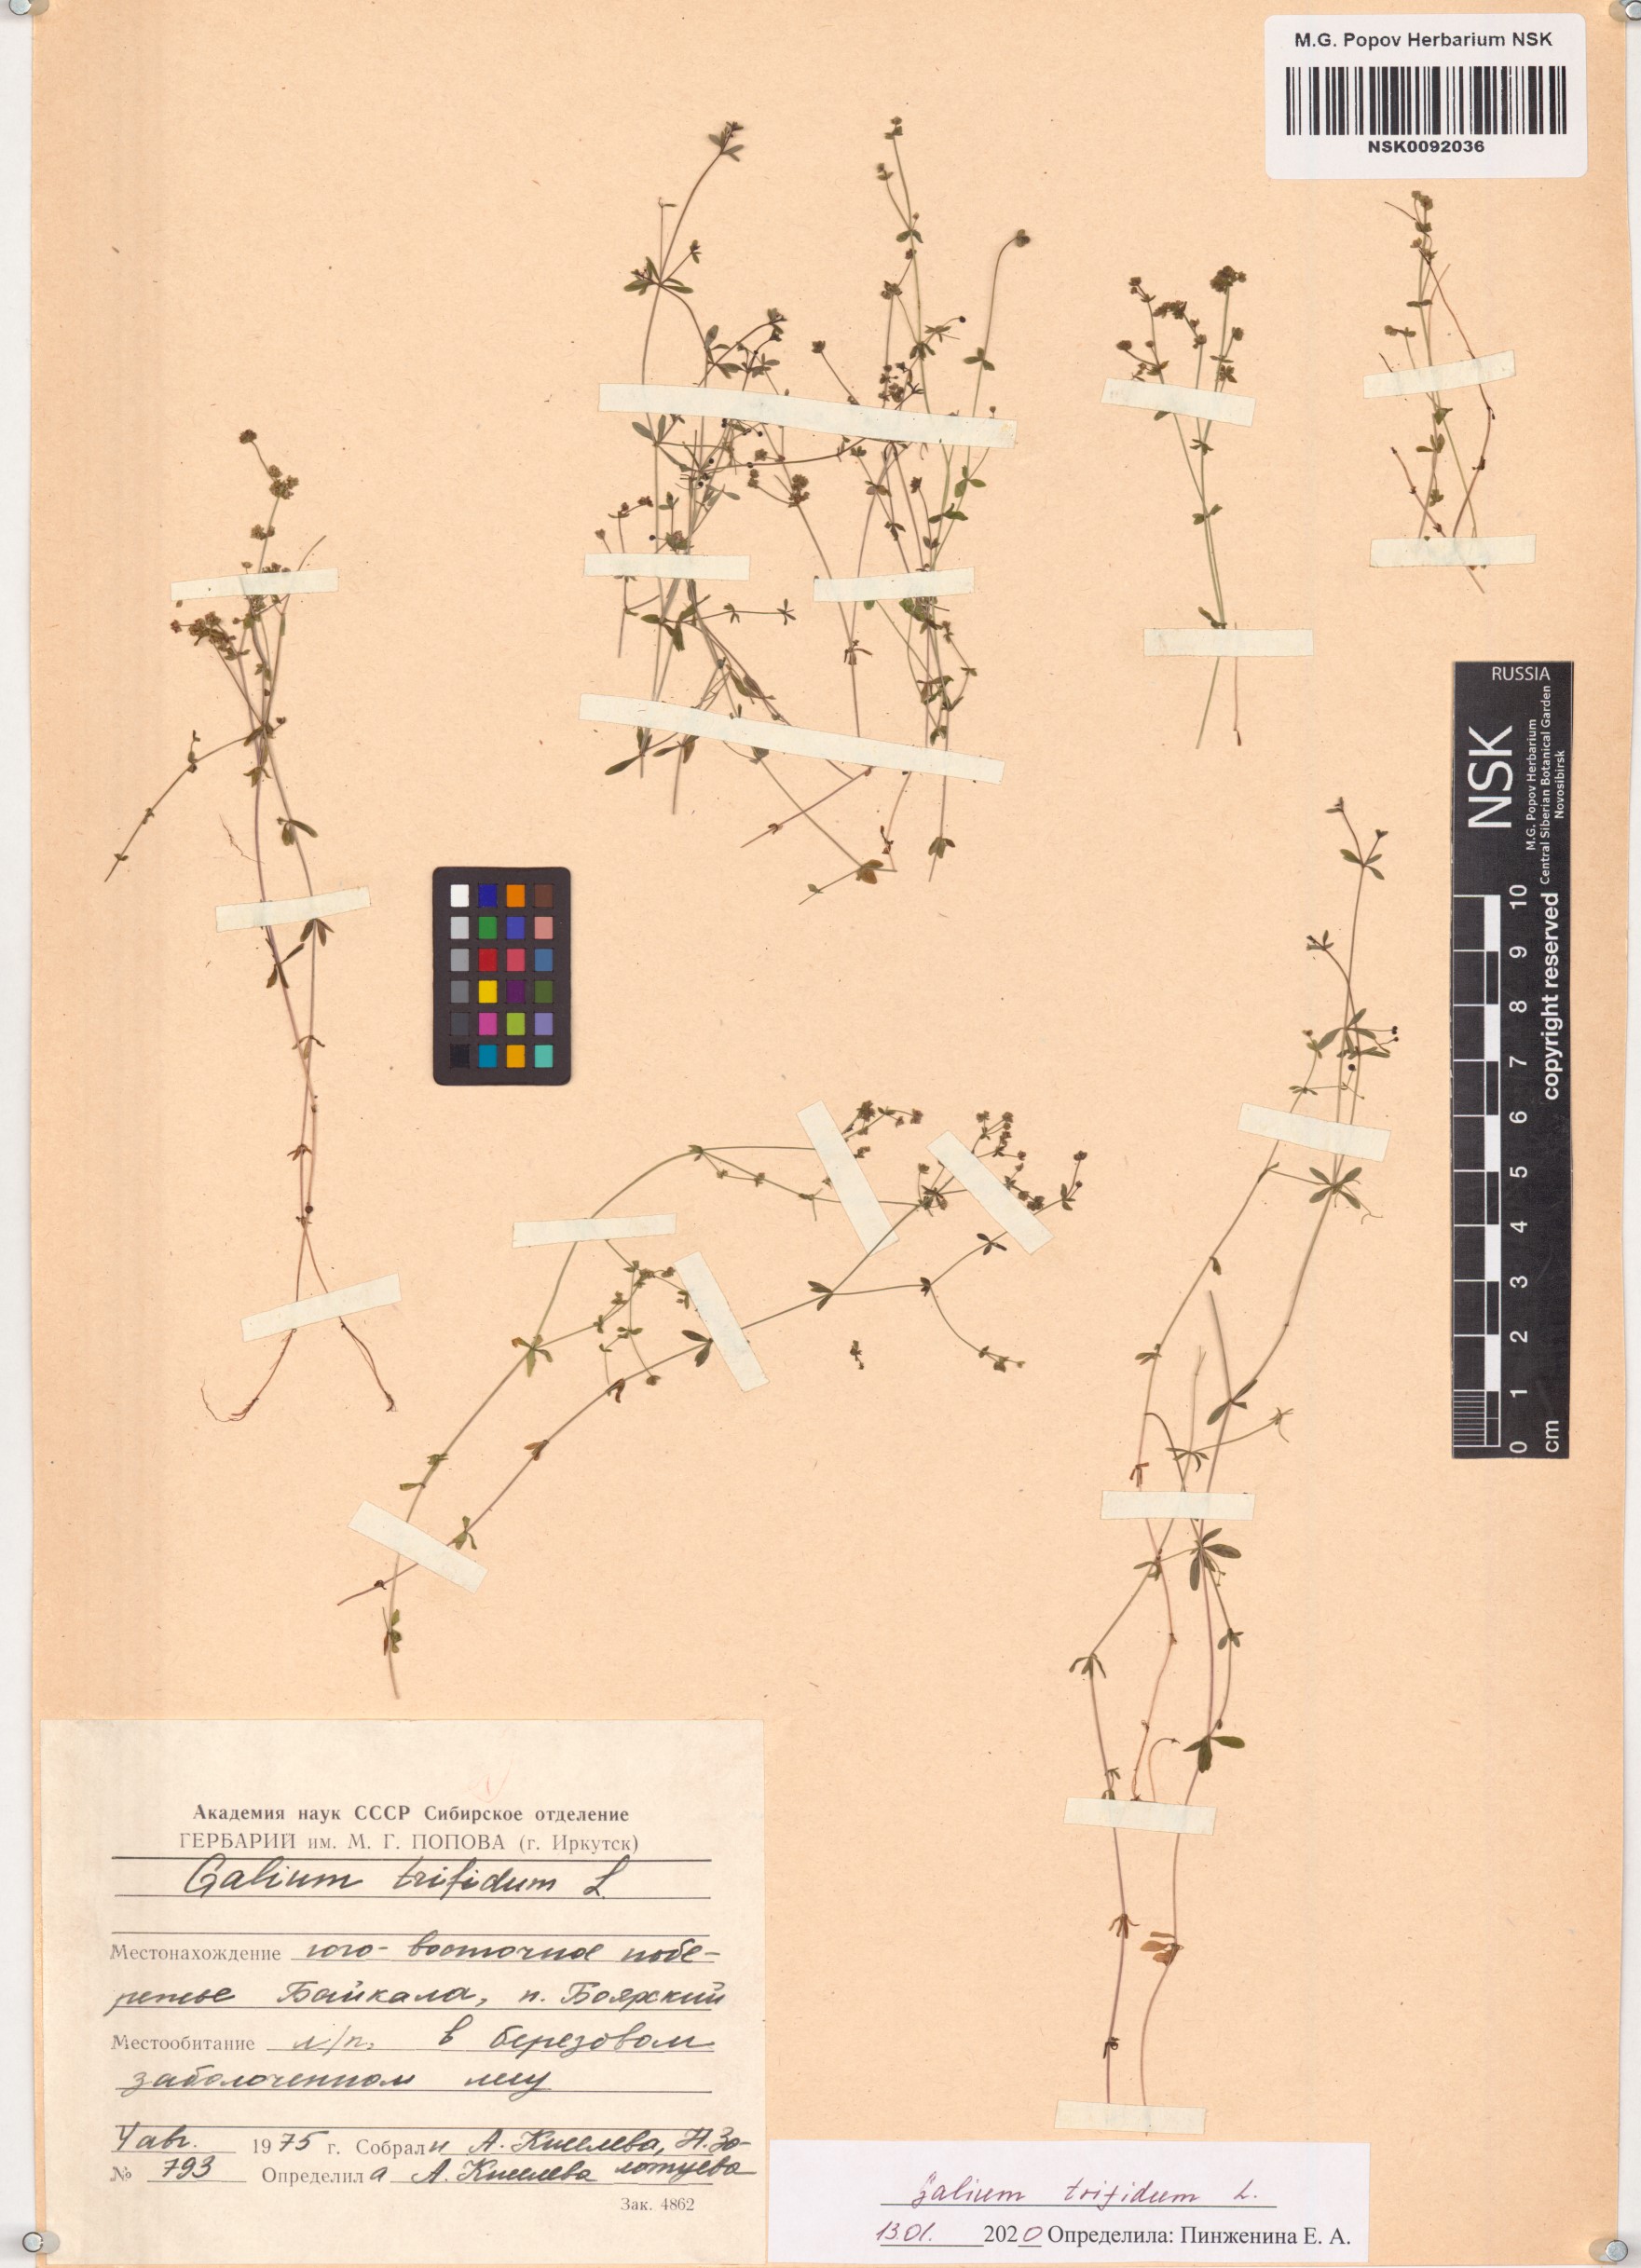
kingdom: Plantae
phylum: Tracheophyta
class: Magnoliopsida
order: Gentianales
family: Rubiaceae
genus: Galium
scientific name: Galium trifidum
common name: Small bedstraw
